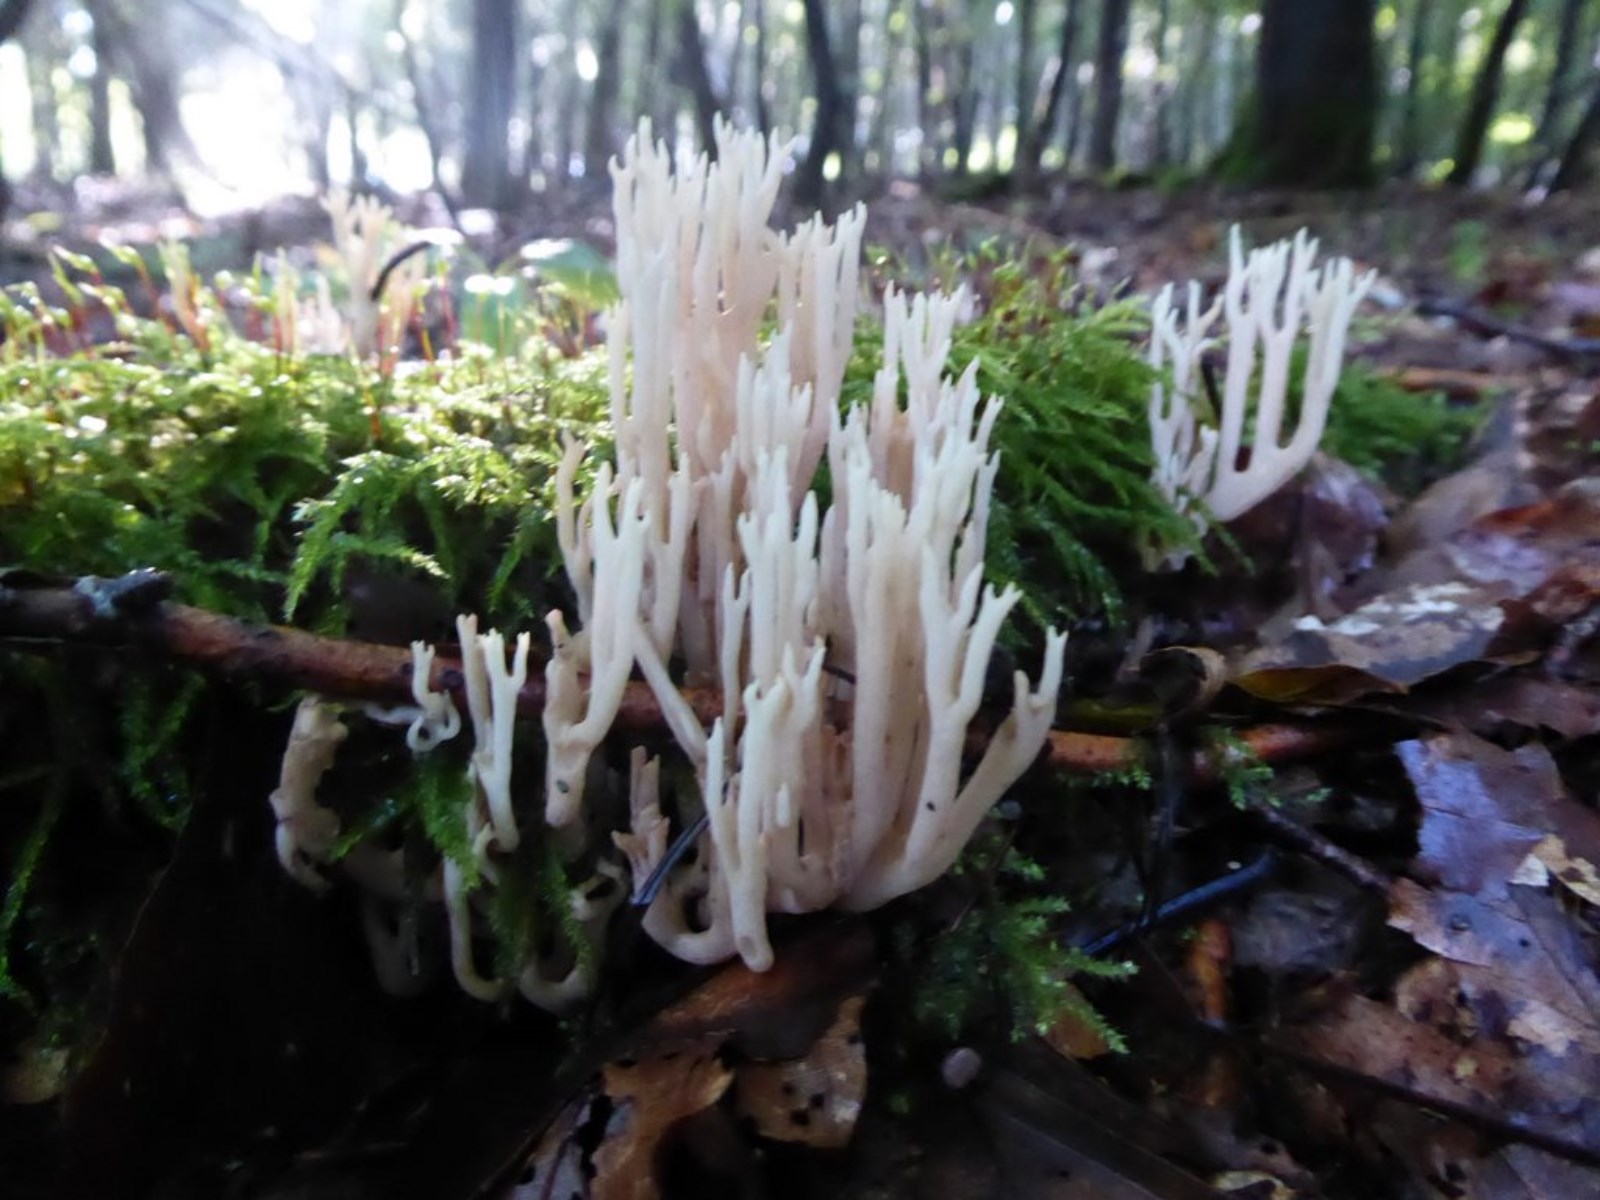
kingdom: Fungi
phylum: Basidiomycota
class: Agaricomycetes
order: Gomphales
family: Gomphaceae
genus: Ramaria
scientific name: Ramaria stricta
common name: rank koralsvamp
